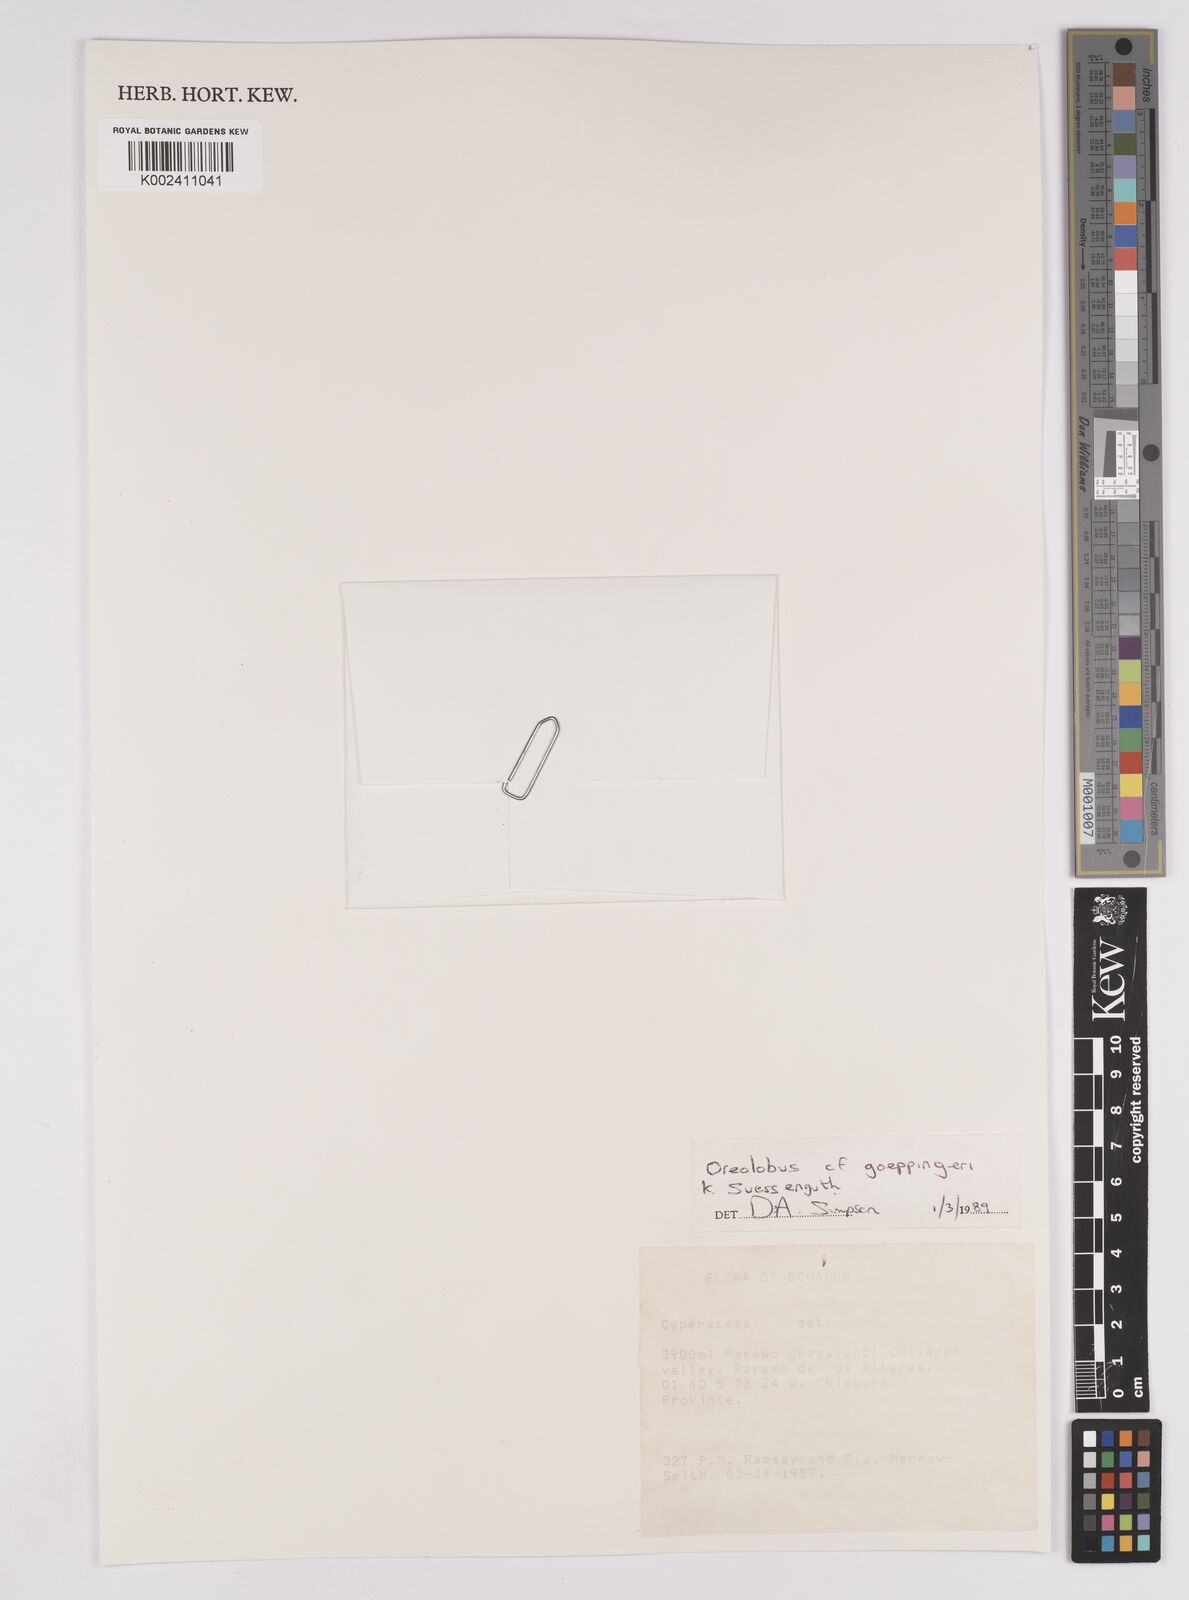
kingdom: Plantae
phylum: Tracheophyta
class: Liliopsida
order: Poales
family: Cyperaceae
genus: Oreobolus
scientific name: Oreobolus goeppingeri
